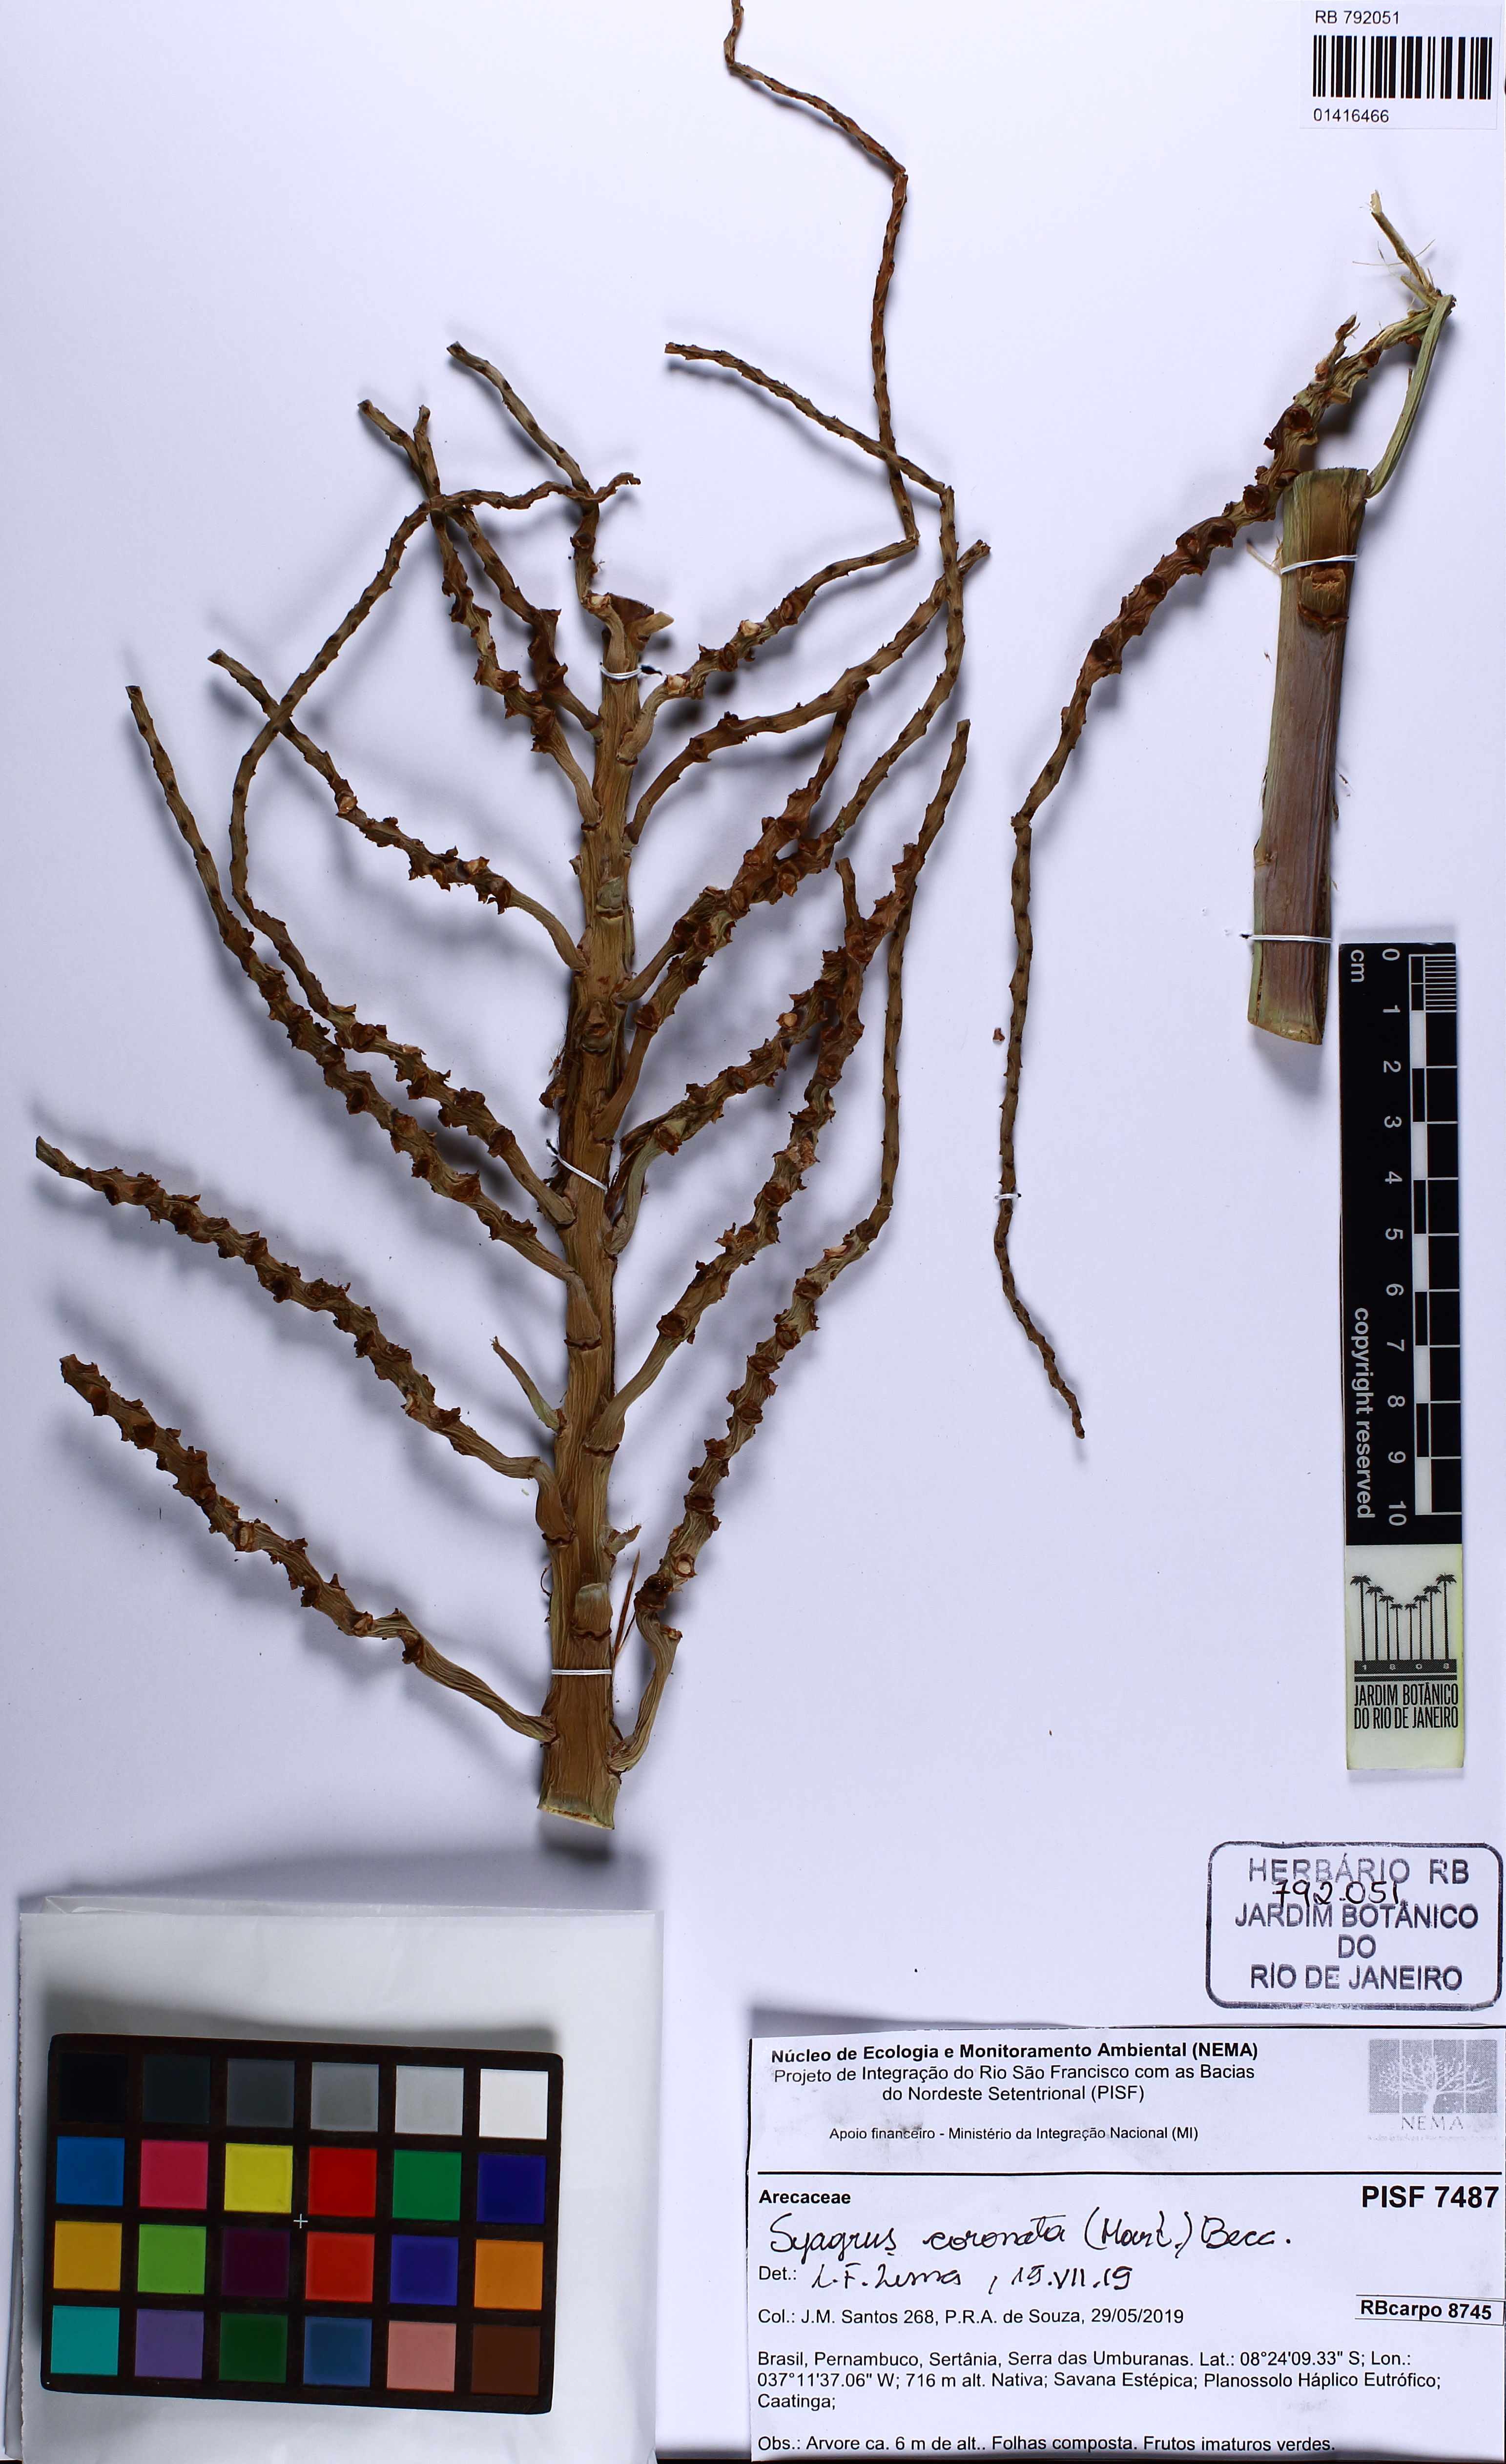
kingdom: Plantae
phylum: Tracheophyta
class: Liliopsida
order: Arecales
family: Arecaceae
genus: Syagrus
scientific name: Syagrus coronata
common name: Licuri palm
